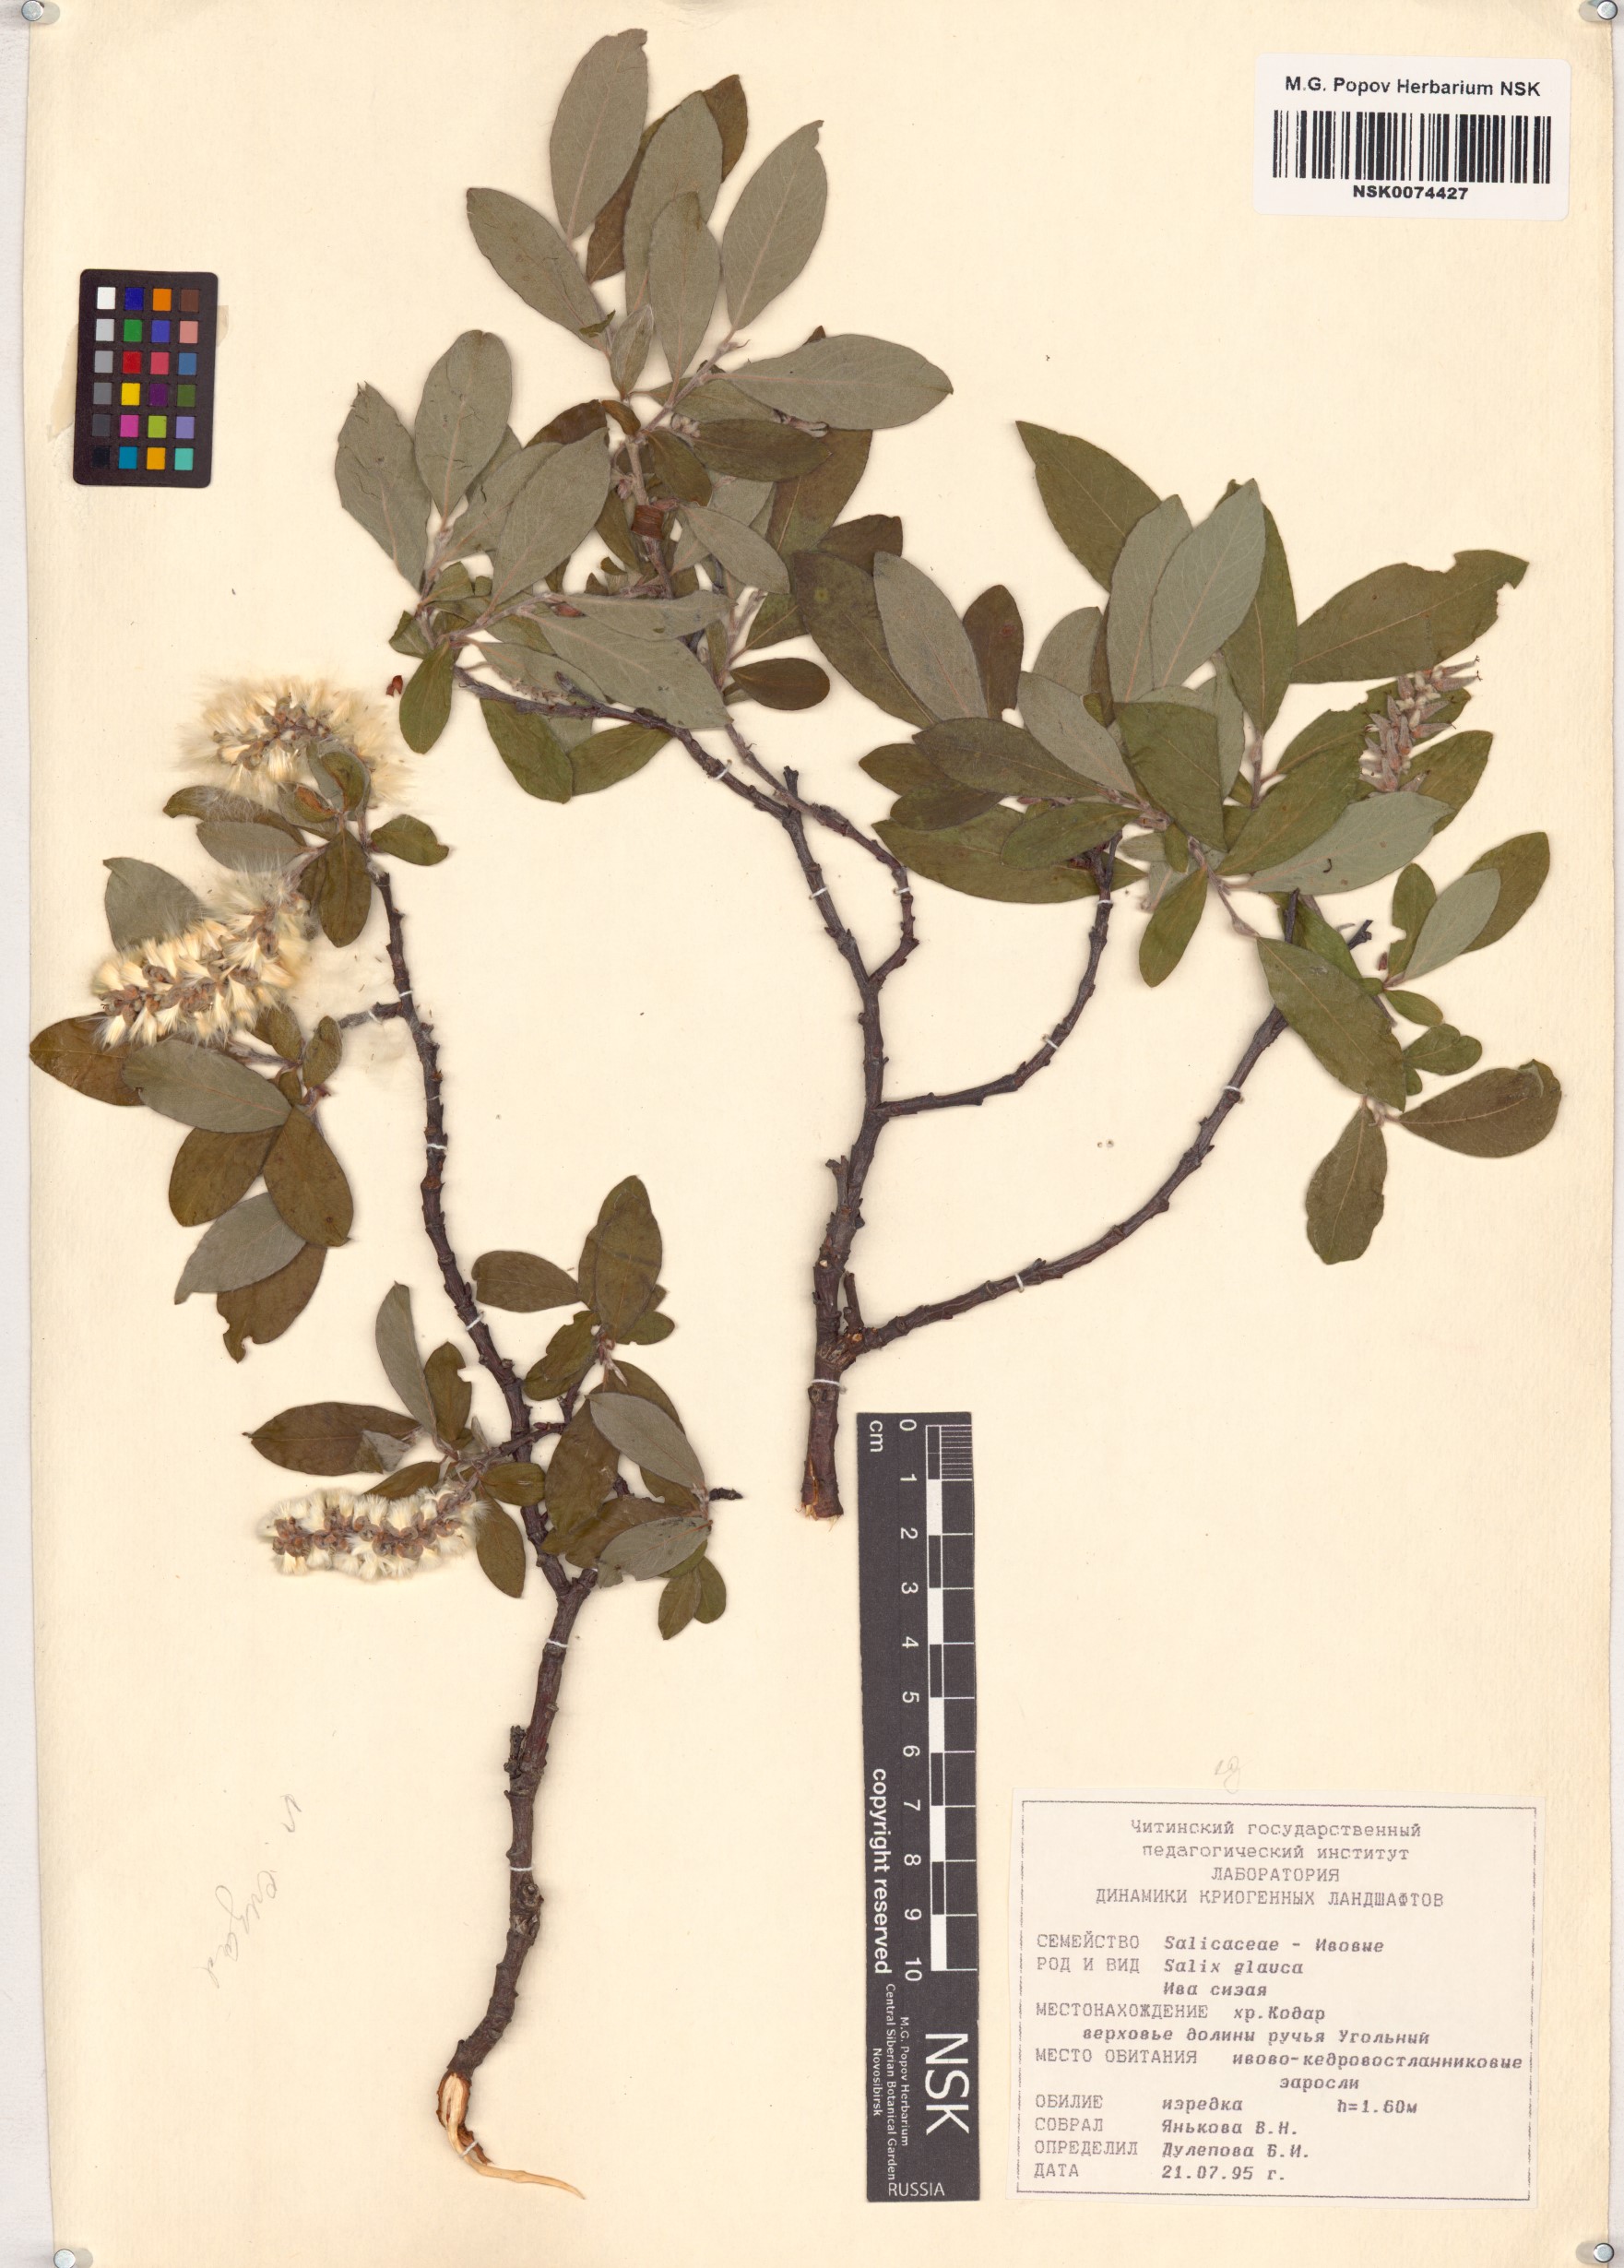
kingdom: Plantae
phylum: Tracheophyta
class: Magnoliopsida
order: Malpighiales
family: Salicaceae
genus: Salix
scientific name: Salix glauca
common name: Glaucous willow
